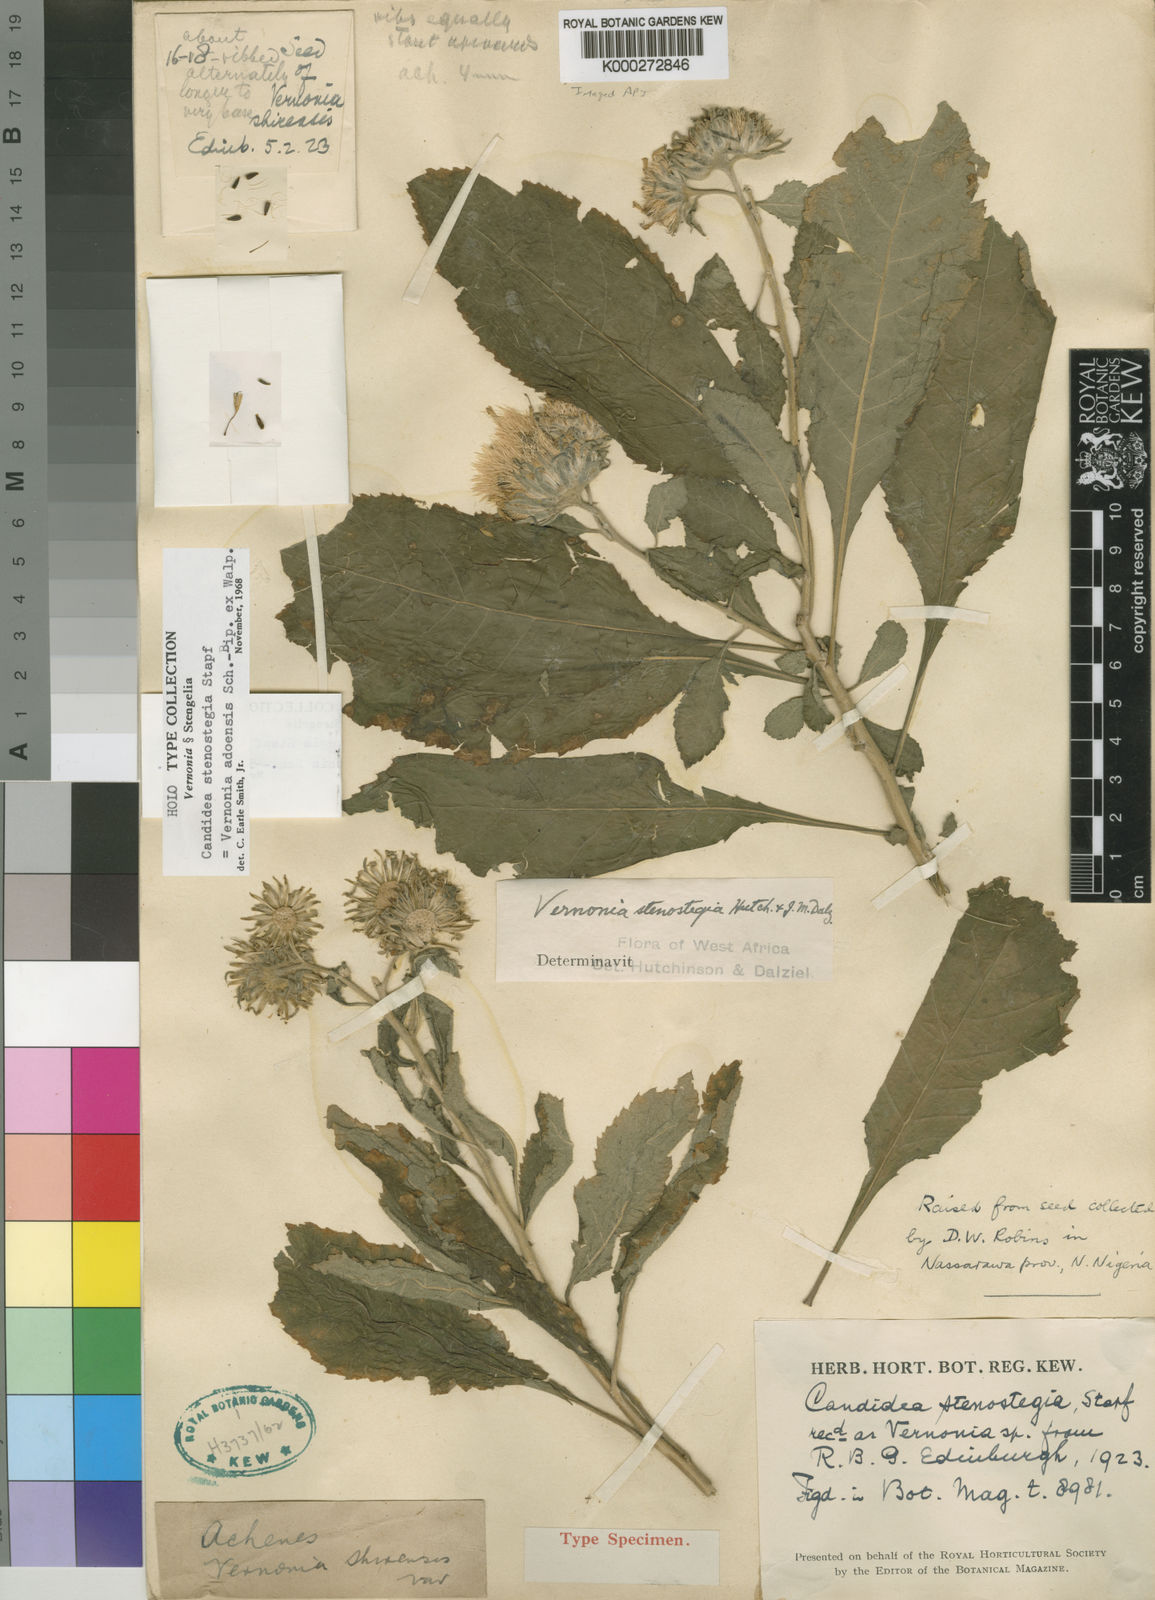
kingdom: Plantae
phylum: Tracheophyta
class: Magnoliopsida
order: Asterales
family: Asteraceae
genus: Baccharoides
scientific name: Baccharoides stenostegia
